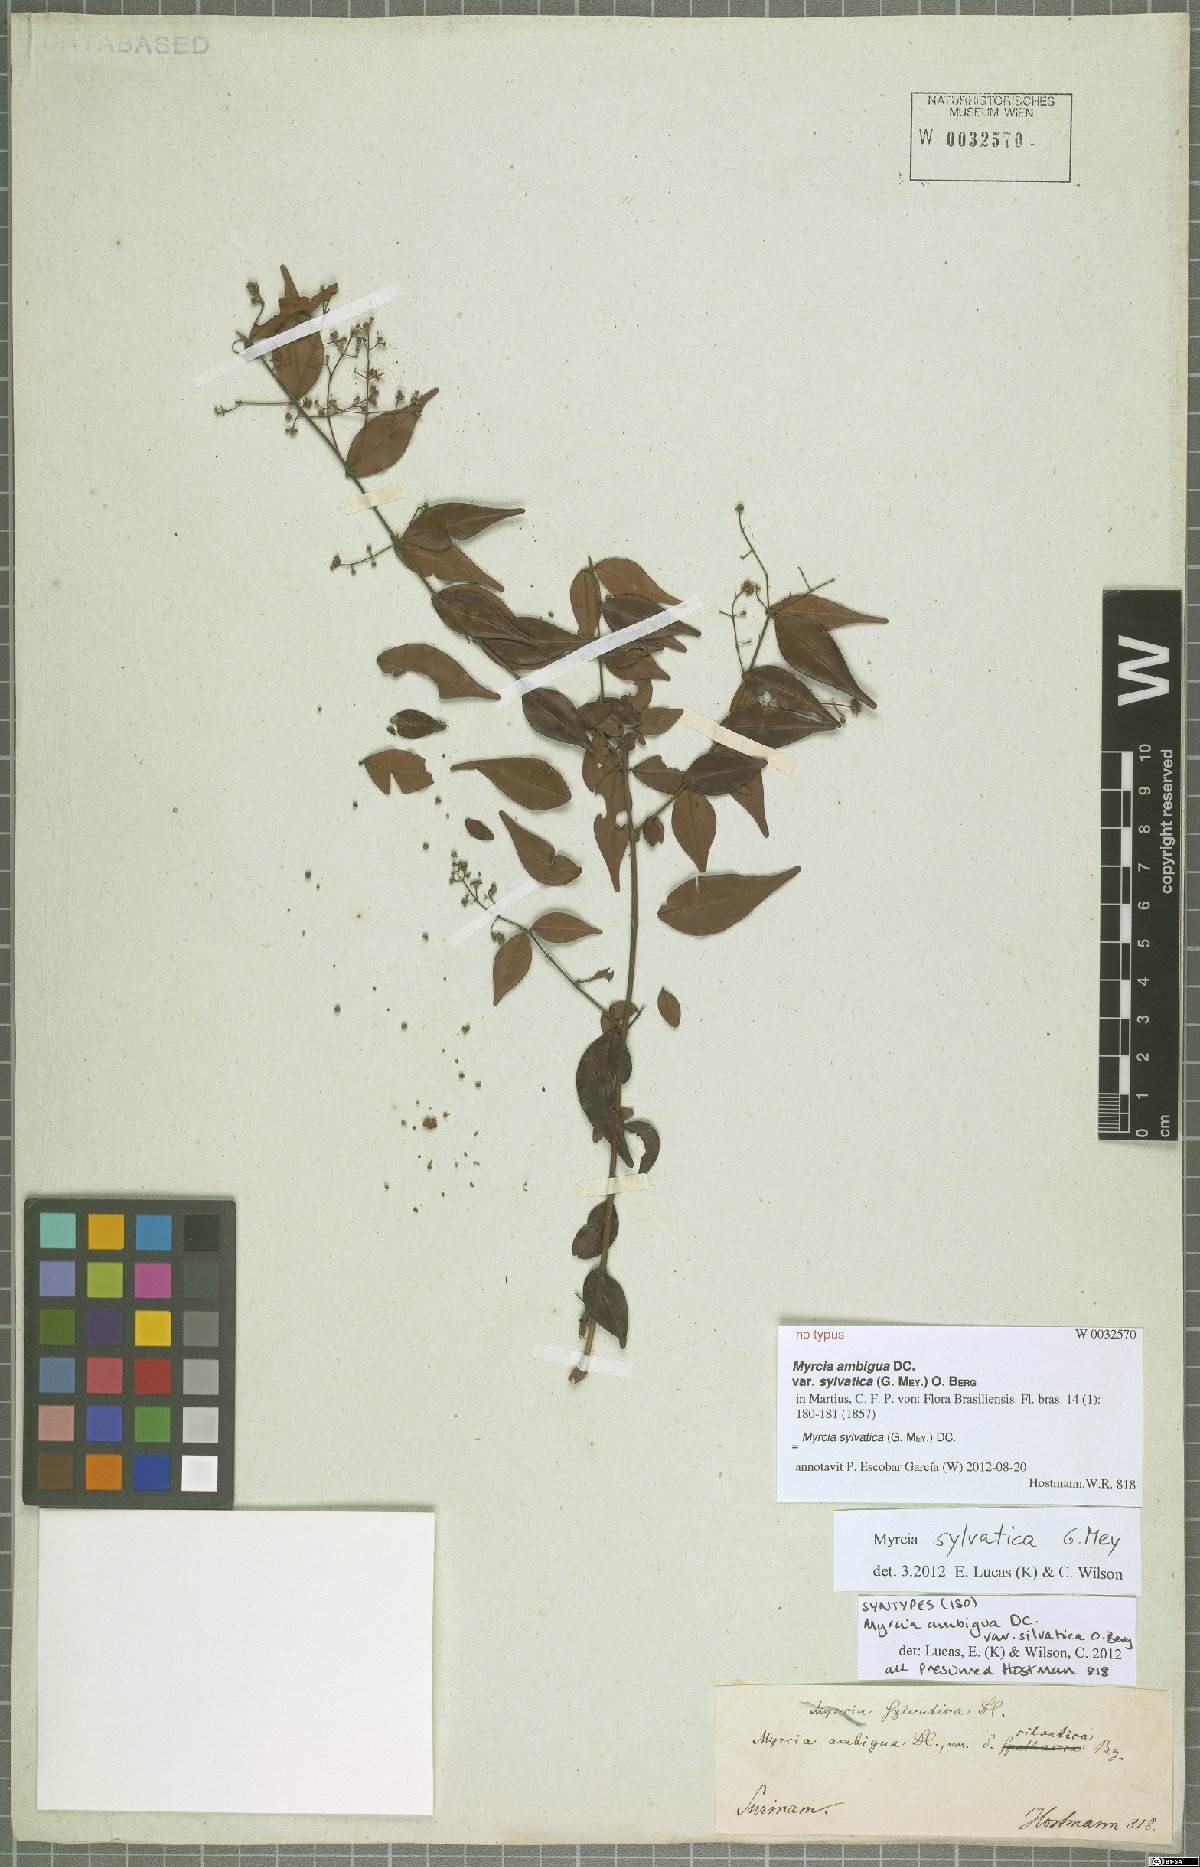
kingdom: Plantae
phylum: Tracheophyta
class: Magnoliopsida
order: Myrtales
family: Myrtaceae
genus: Myrcia
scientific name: Myrcia sylvatica
